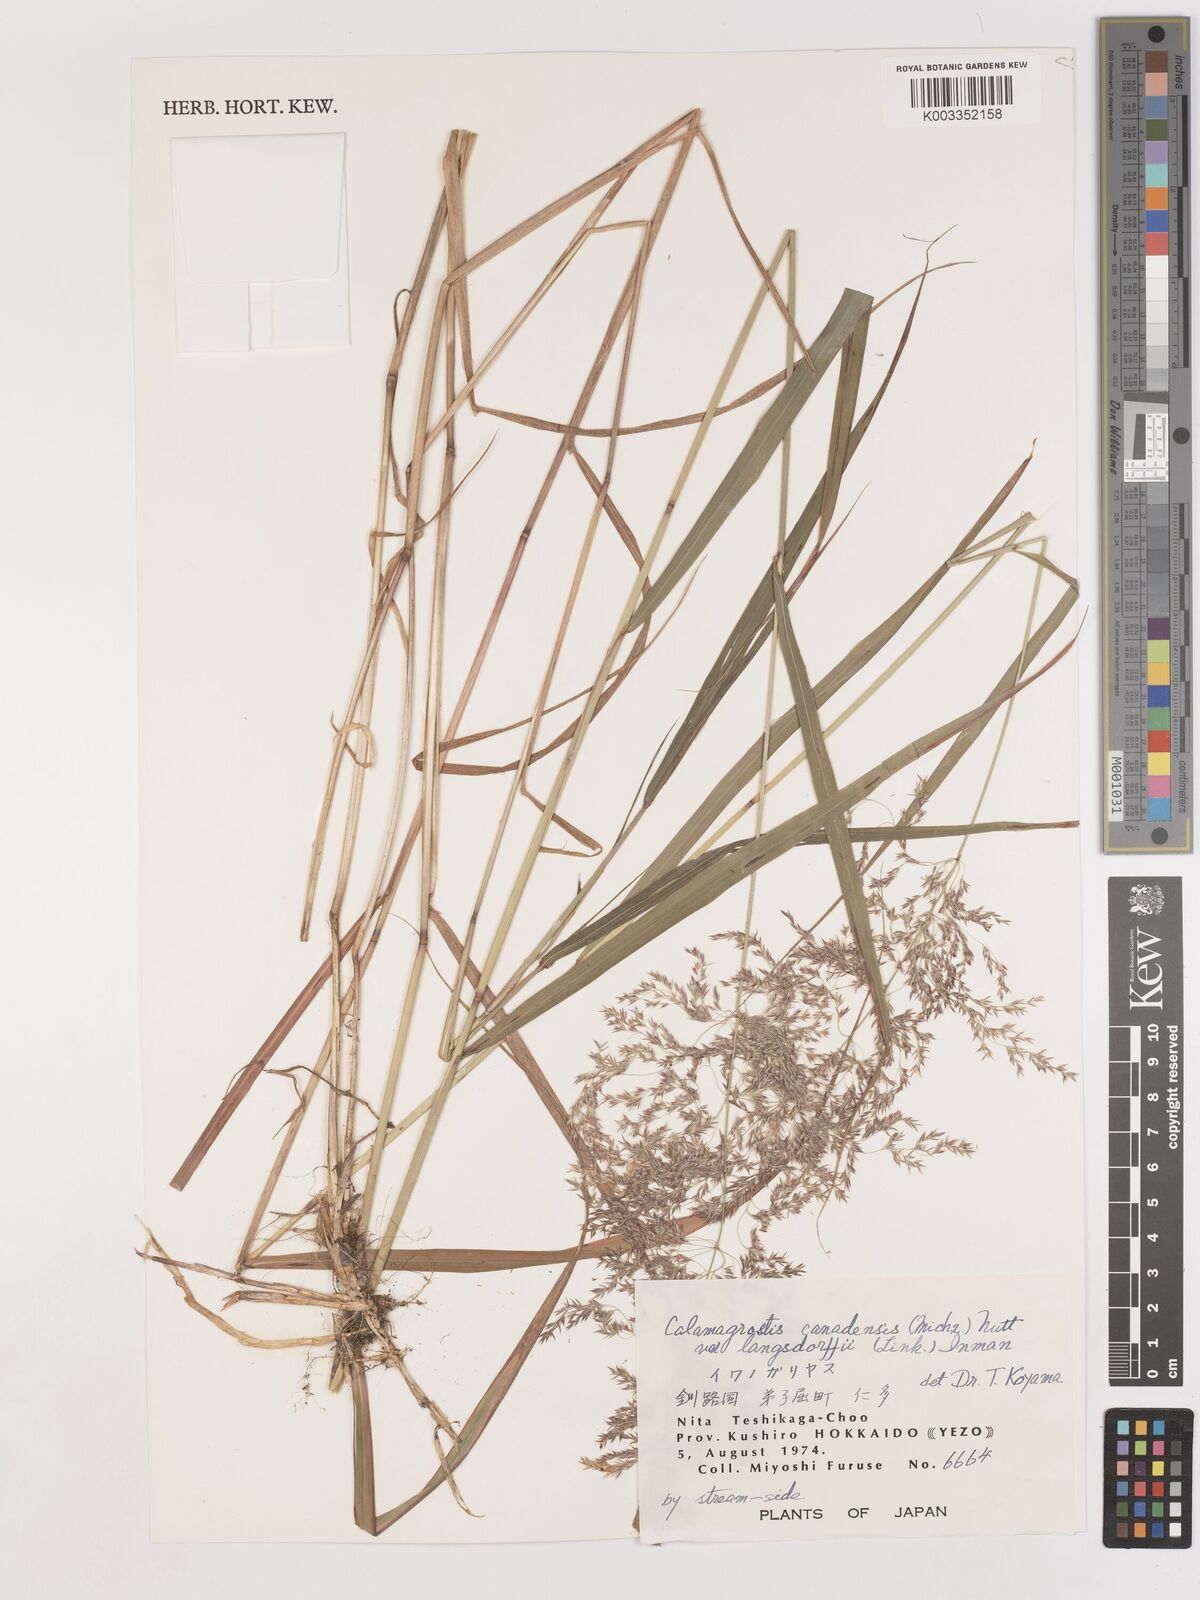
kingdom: Plantae
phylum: Tracheophyta
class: Liliopsida
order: Poales
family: Poaceae
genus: Calamagrostis
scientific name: Calamagrostis purpurea
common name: Scandinavian small-reed
